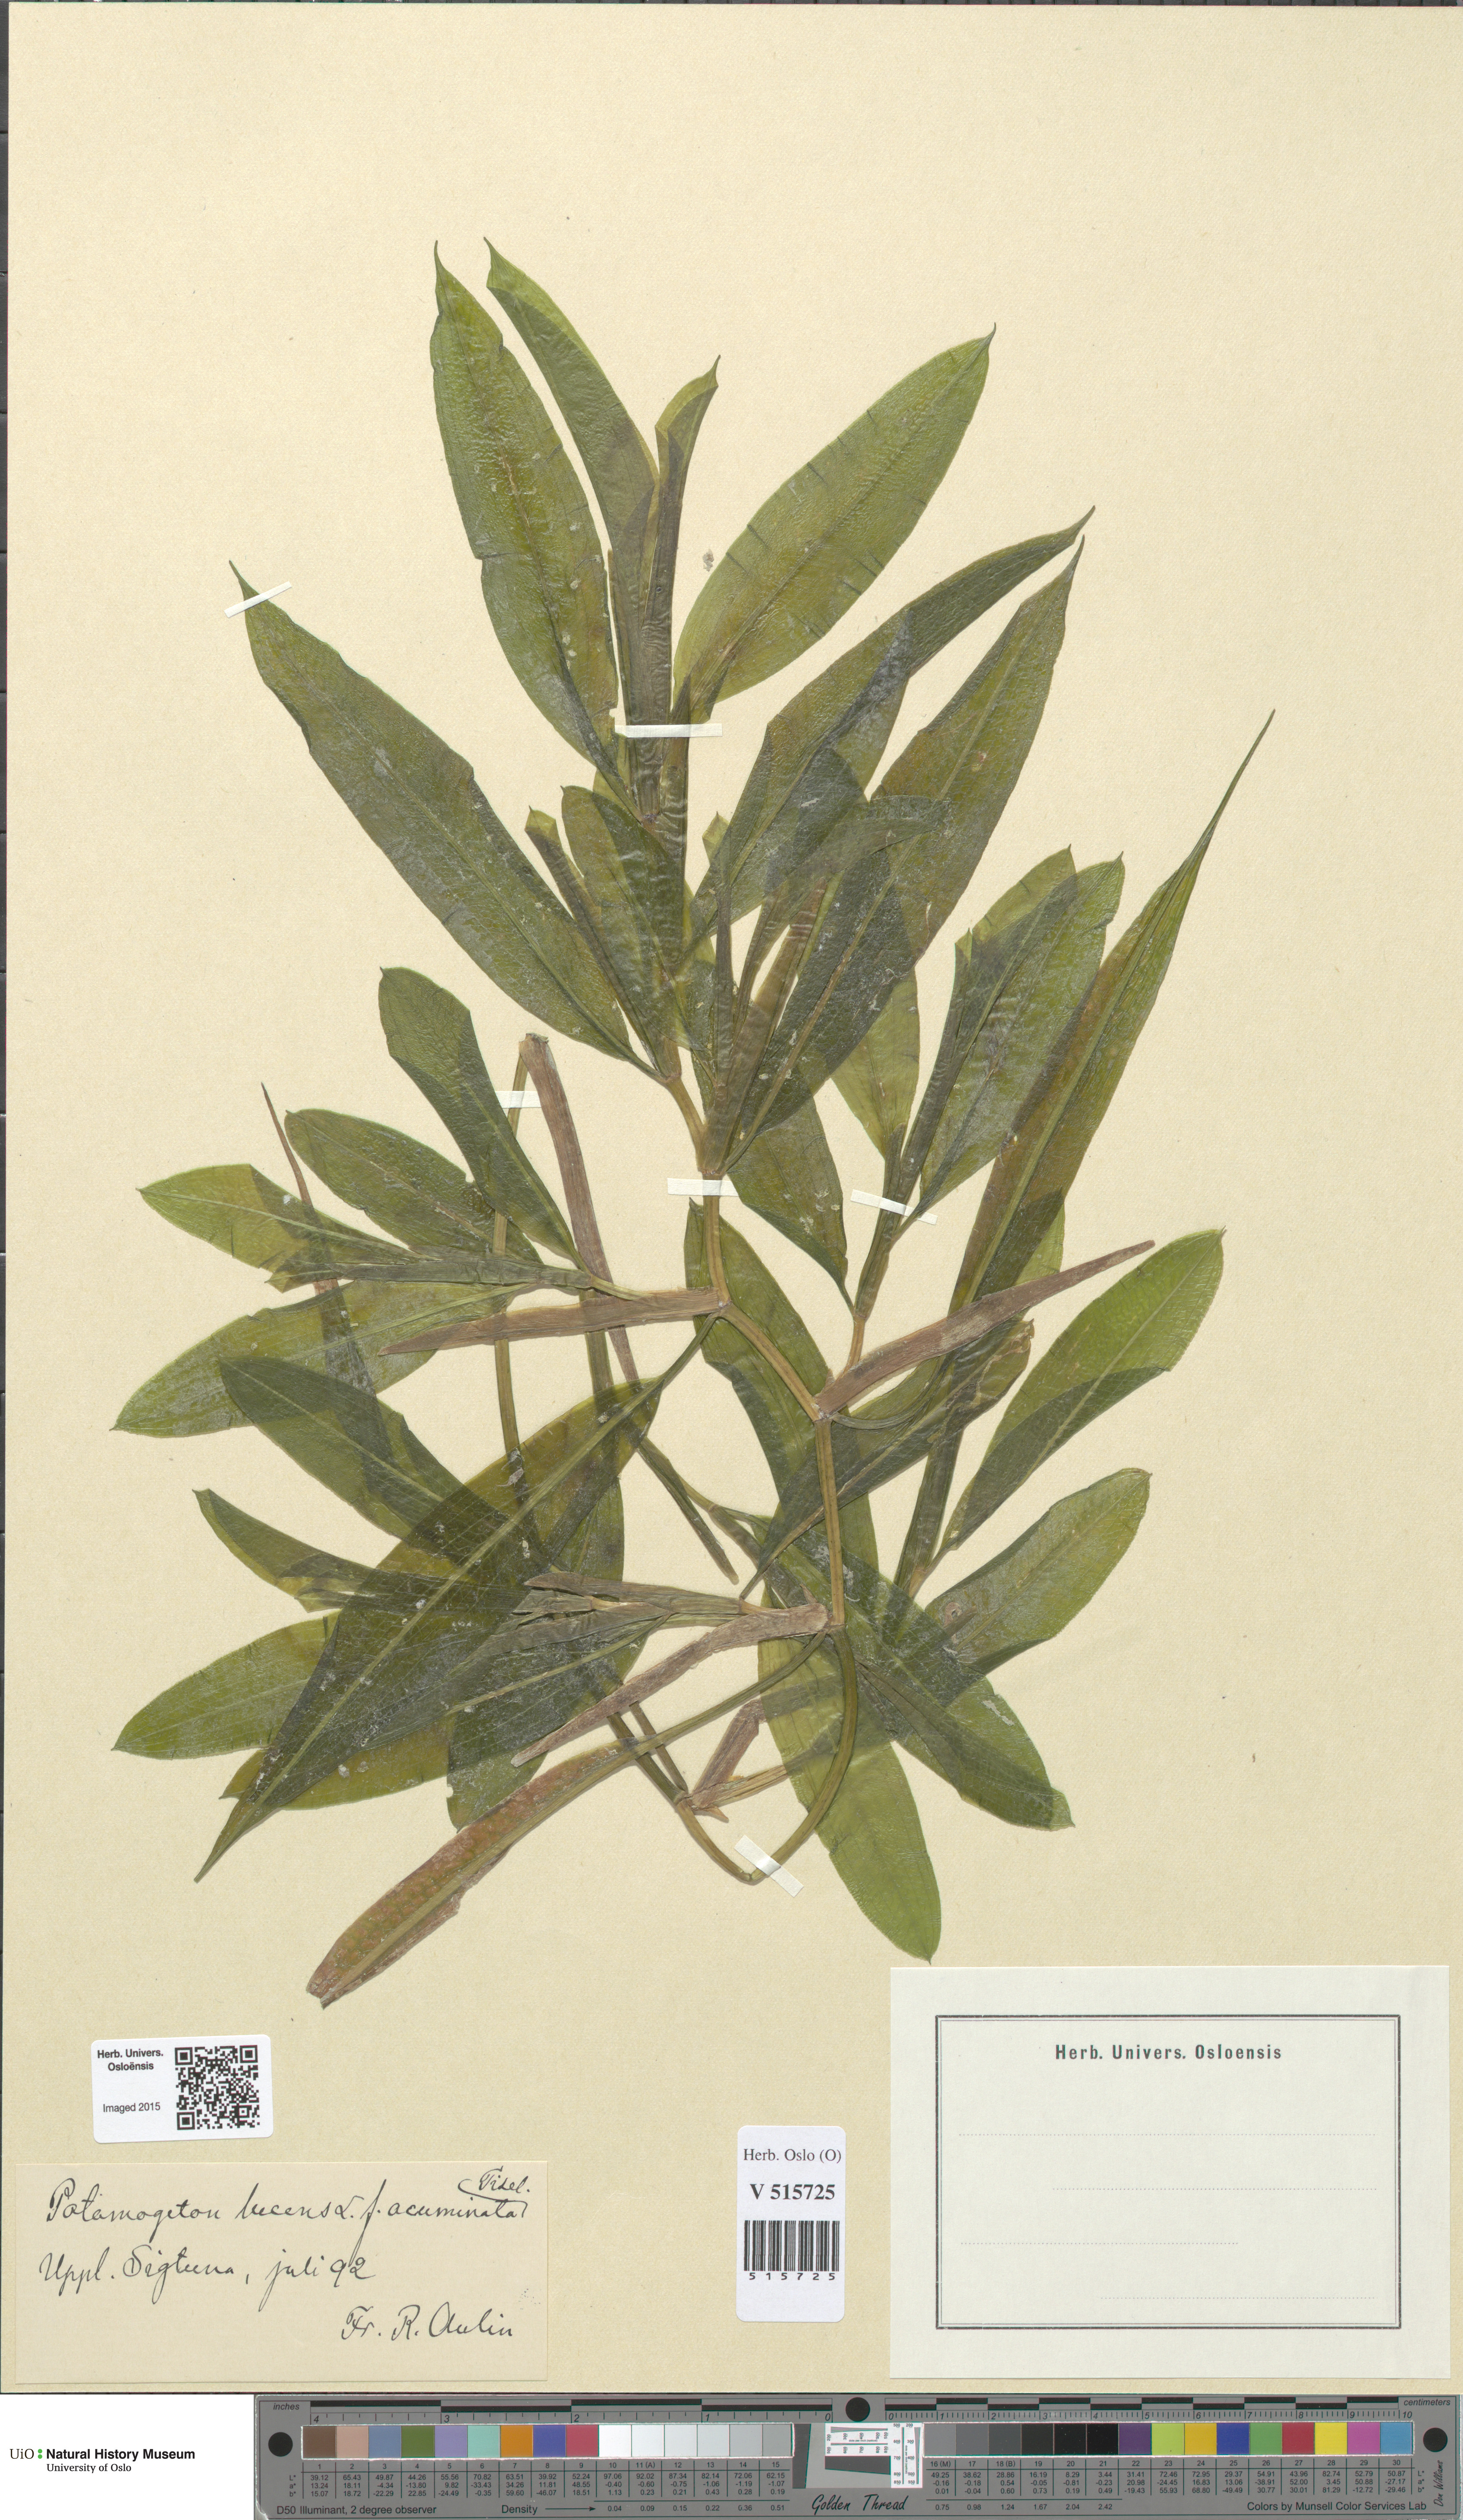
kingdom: Plantae
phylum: Tracheophyta
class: Liliopsida
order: Alismatales
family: Potamogetonaceae
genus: Potamogeton
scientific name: Potamogeton lucens
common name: Shining pondweed
